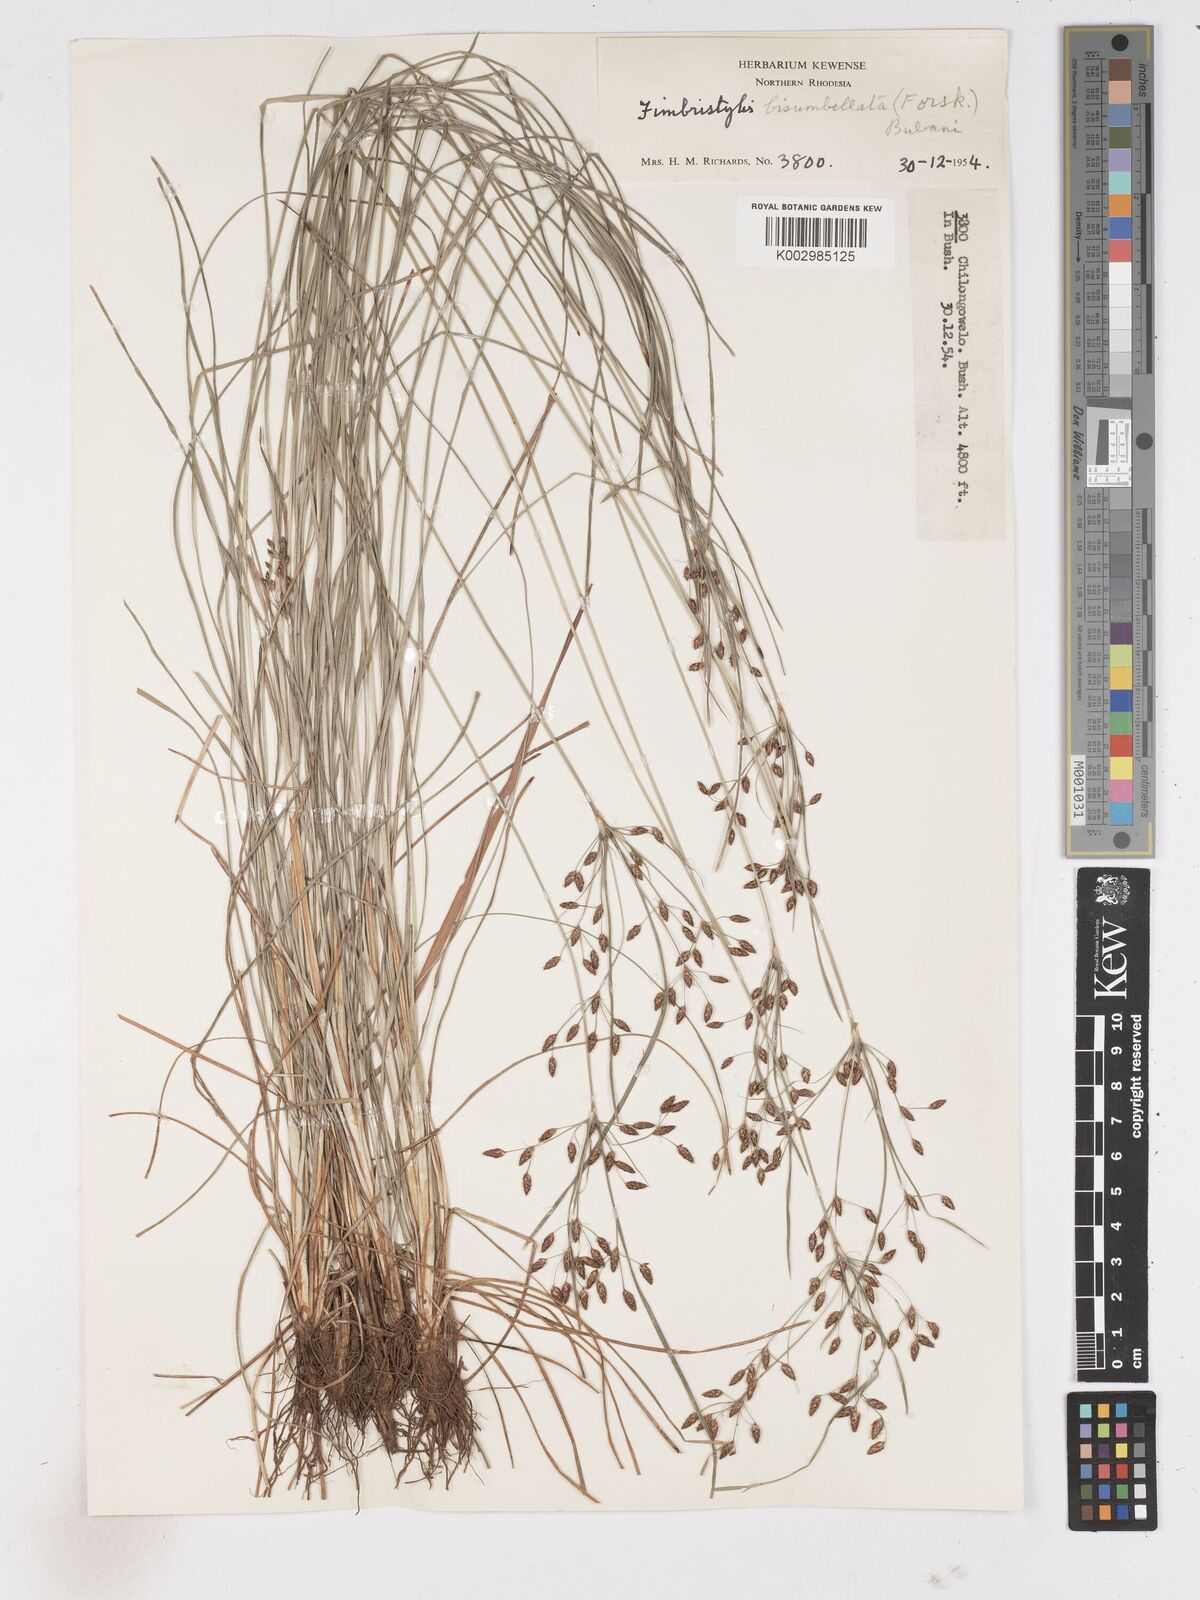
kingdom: Plantae
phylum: Tracheophyta
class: Liliopsida
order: Poales
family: Cyperaceae
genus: Fimbristylis
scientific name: Fimbristylis dichotoma
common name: Forked fimbry
